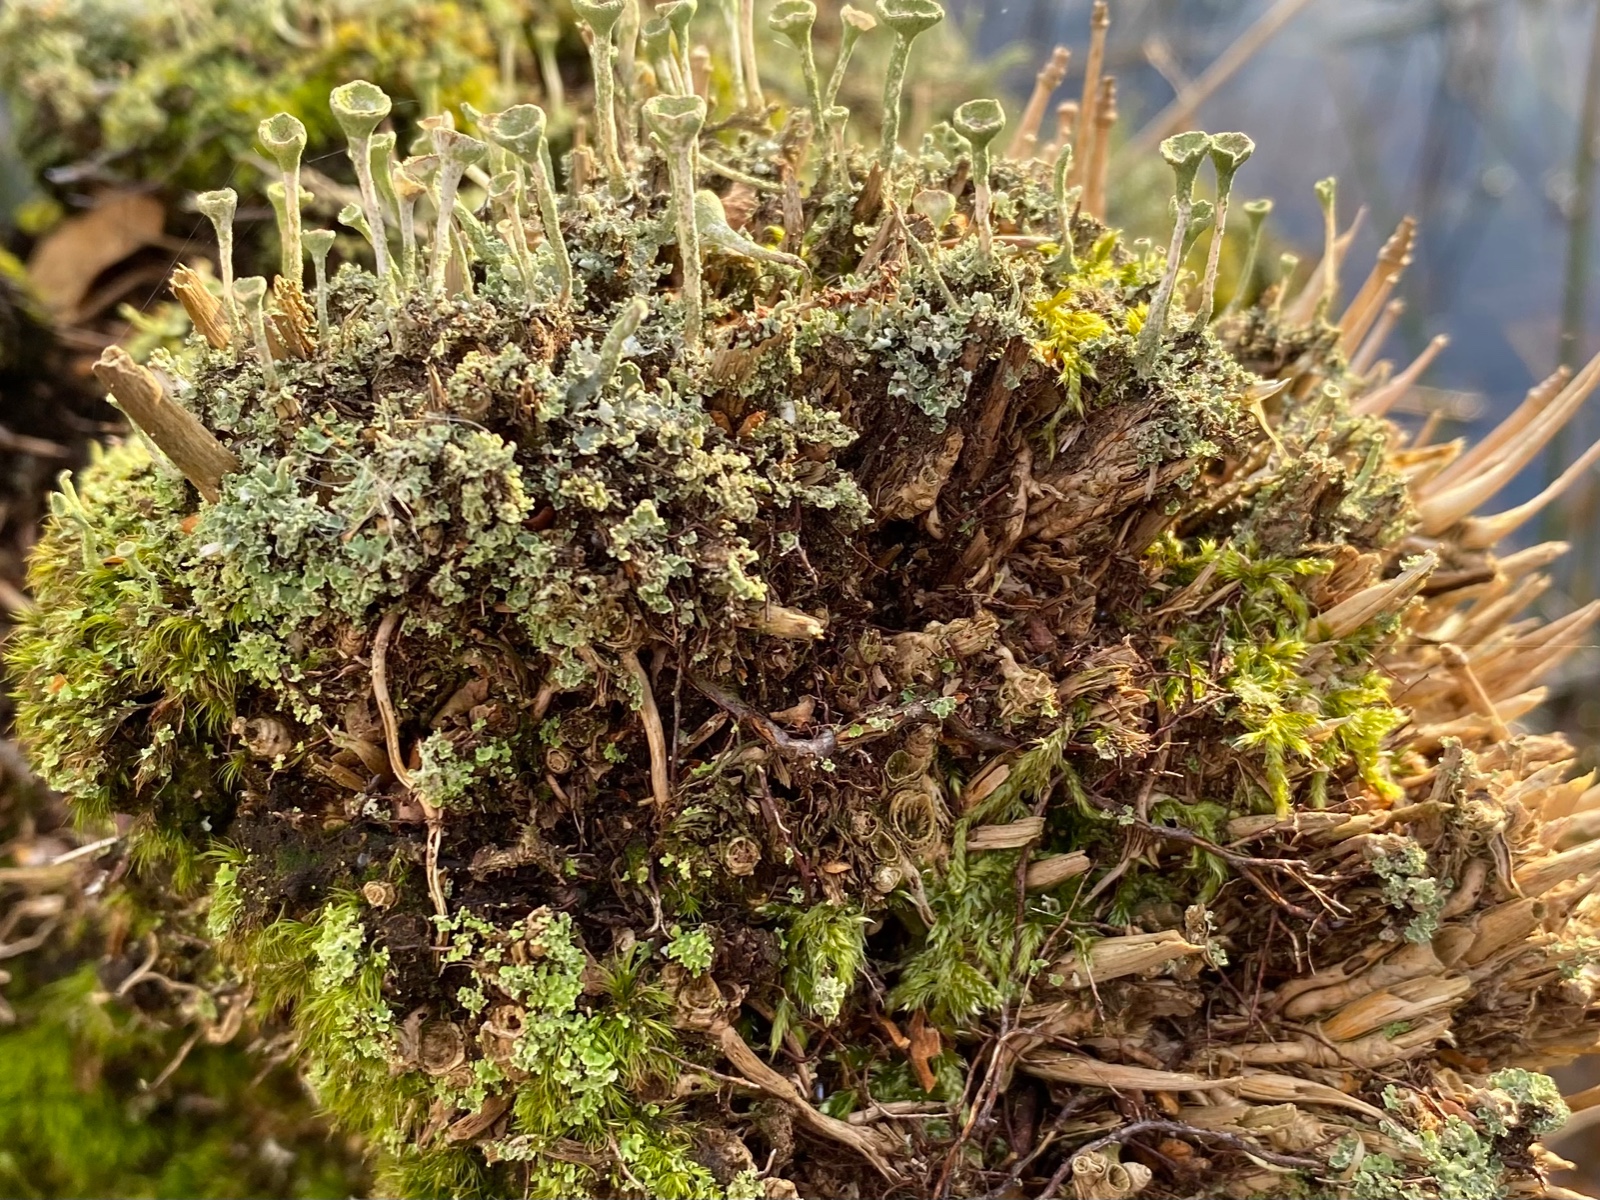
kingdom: Fungi
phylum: Ascomycota
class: Lecanoromycetes
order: Lecanorales
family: Cladoniaceae
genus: Cladonia
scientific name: Cladonia fimbriata
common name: bleggrøn bægerlav
